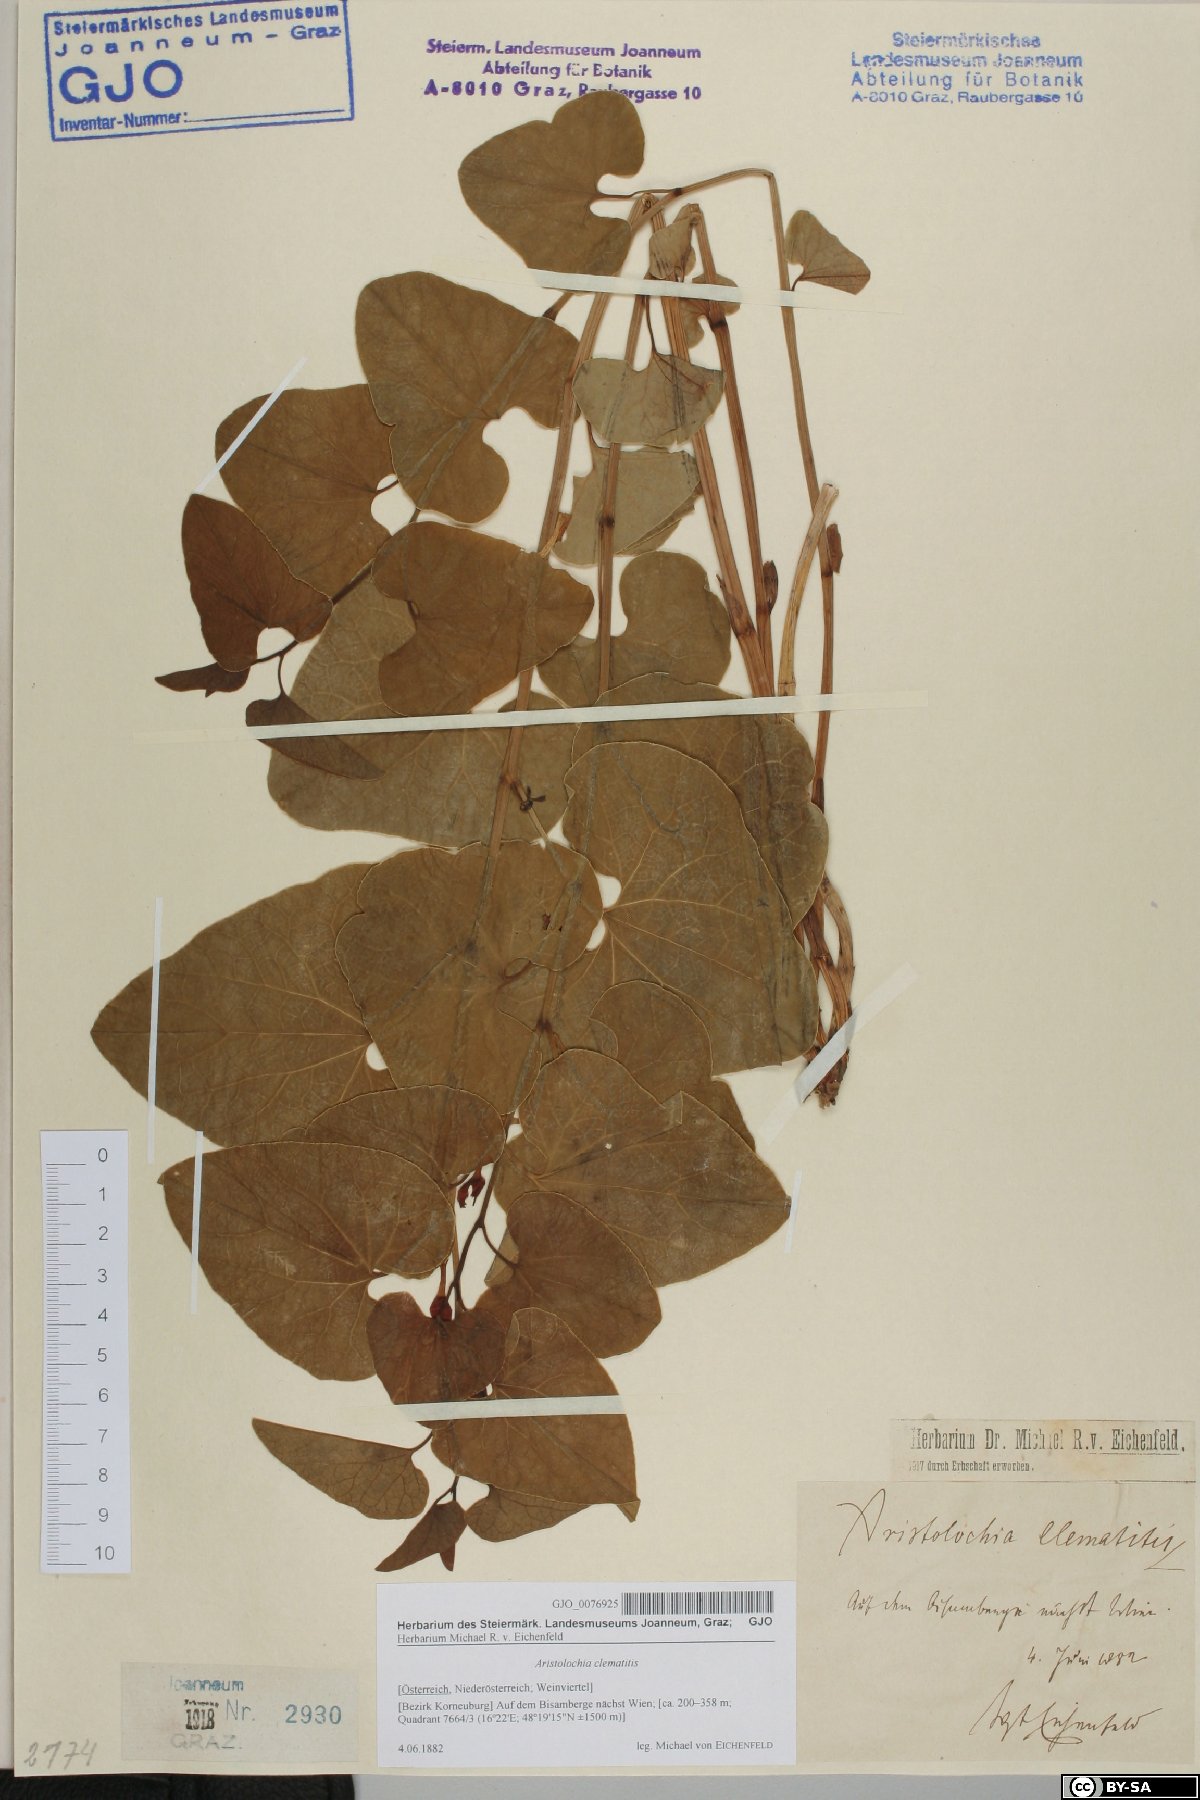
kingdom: Plantae
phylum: Tracheophyta
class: Magnoliopsida
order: Piperales
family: Aristolochiaceae
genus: Aristolochia
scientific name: Aristolochia clematitis
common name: Birthwort
